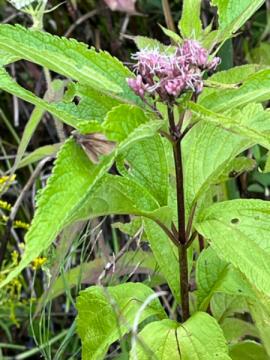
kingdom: Animalia
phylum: Arthropoda
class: Insecta
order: Lepidoptera
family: Hesperiidae
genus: Euphyes
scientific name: Euphyes vestris
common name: Dun Skipper
